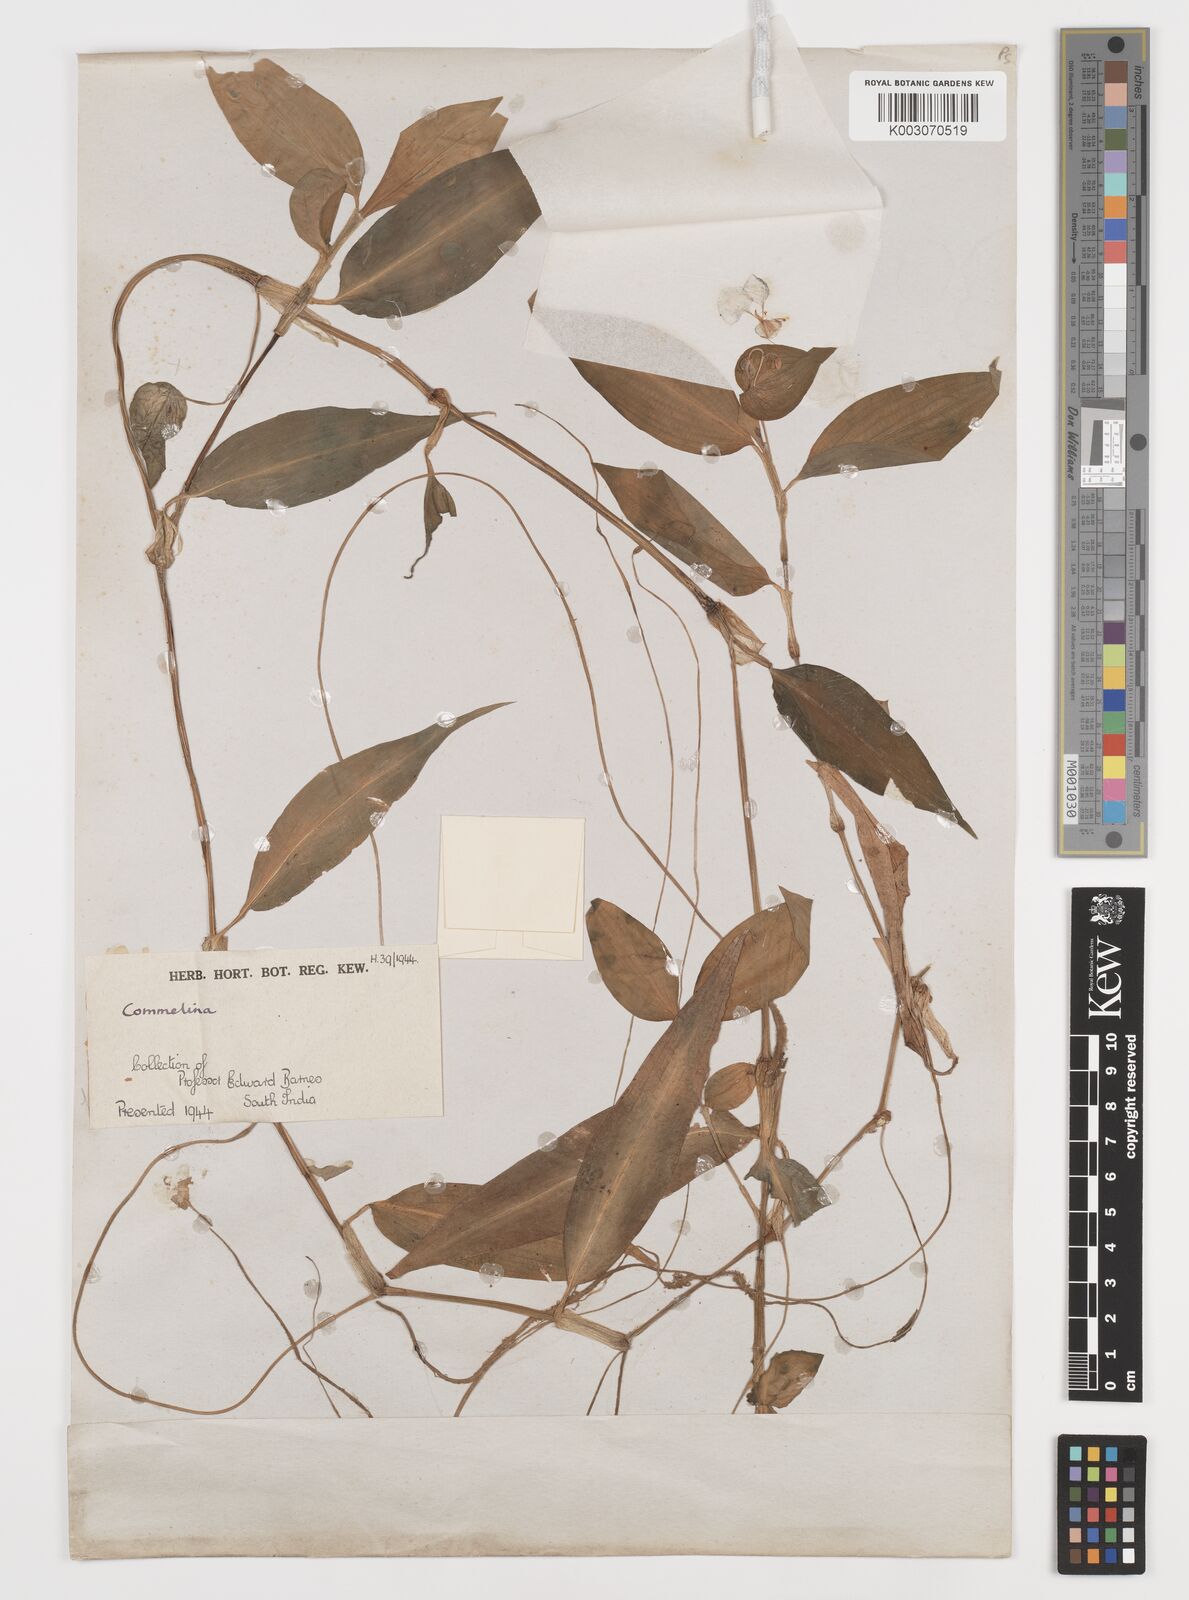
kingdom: Plantae
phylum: Tracheophyta
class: Liliopsida
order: Commelinales
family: Commelinaceae
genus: Commelina
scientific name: Commelina
